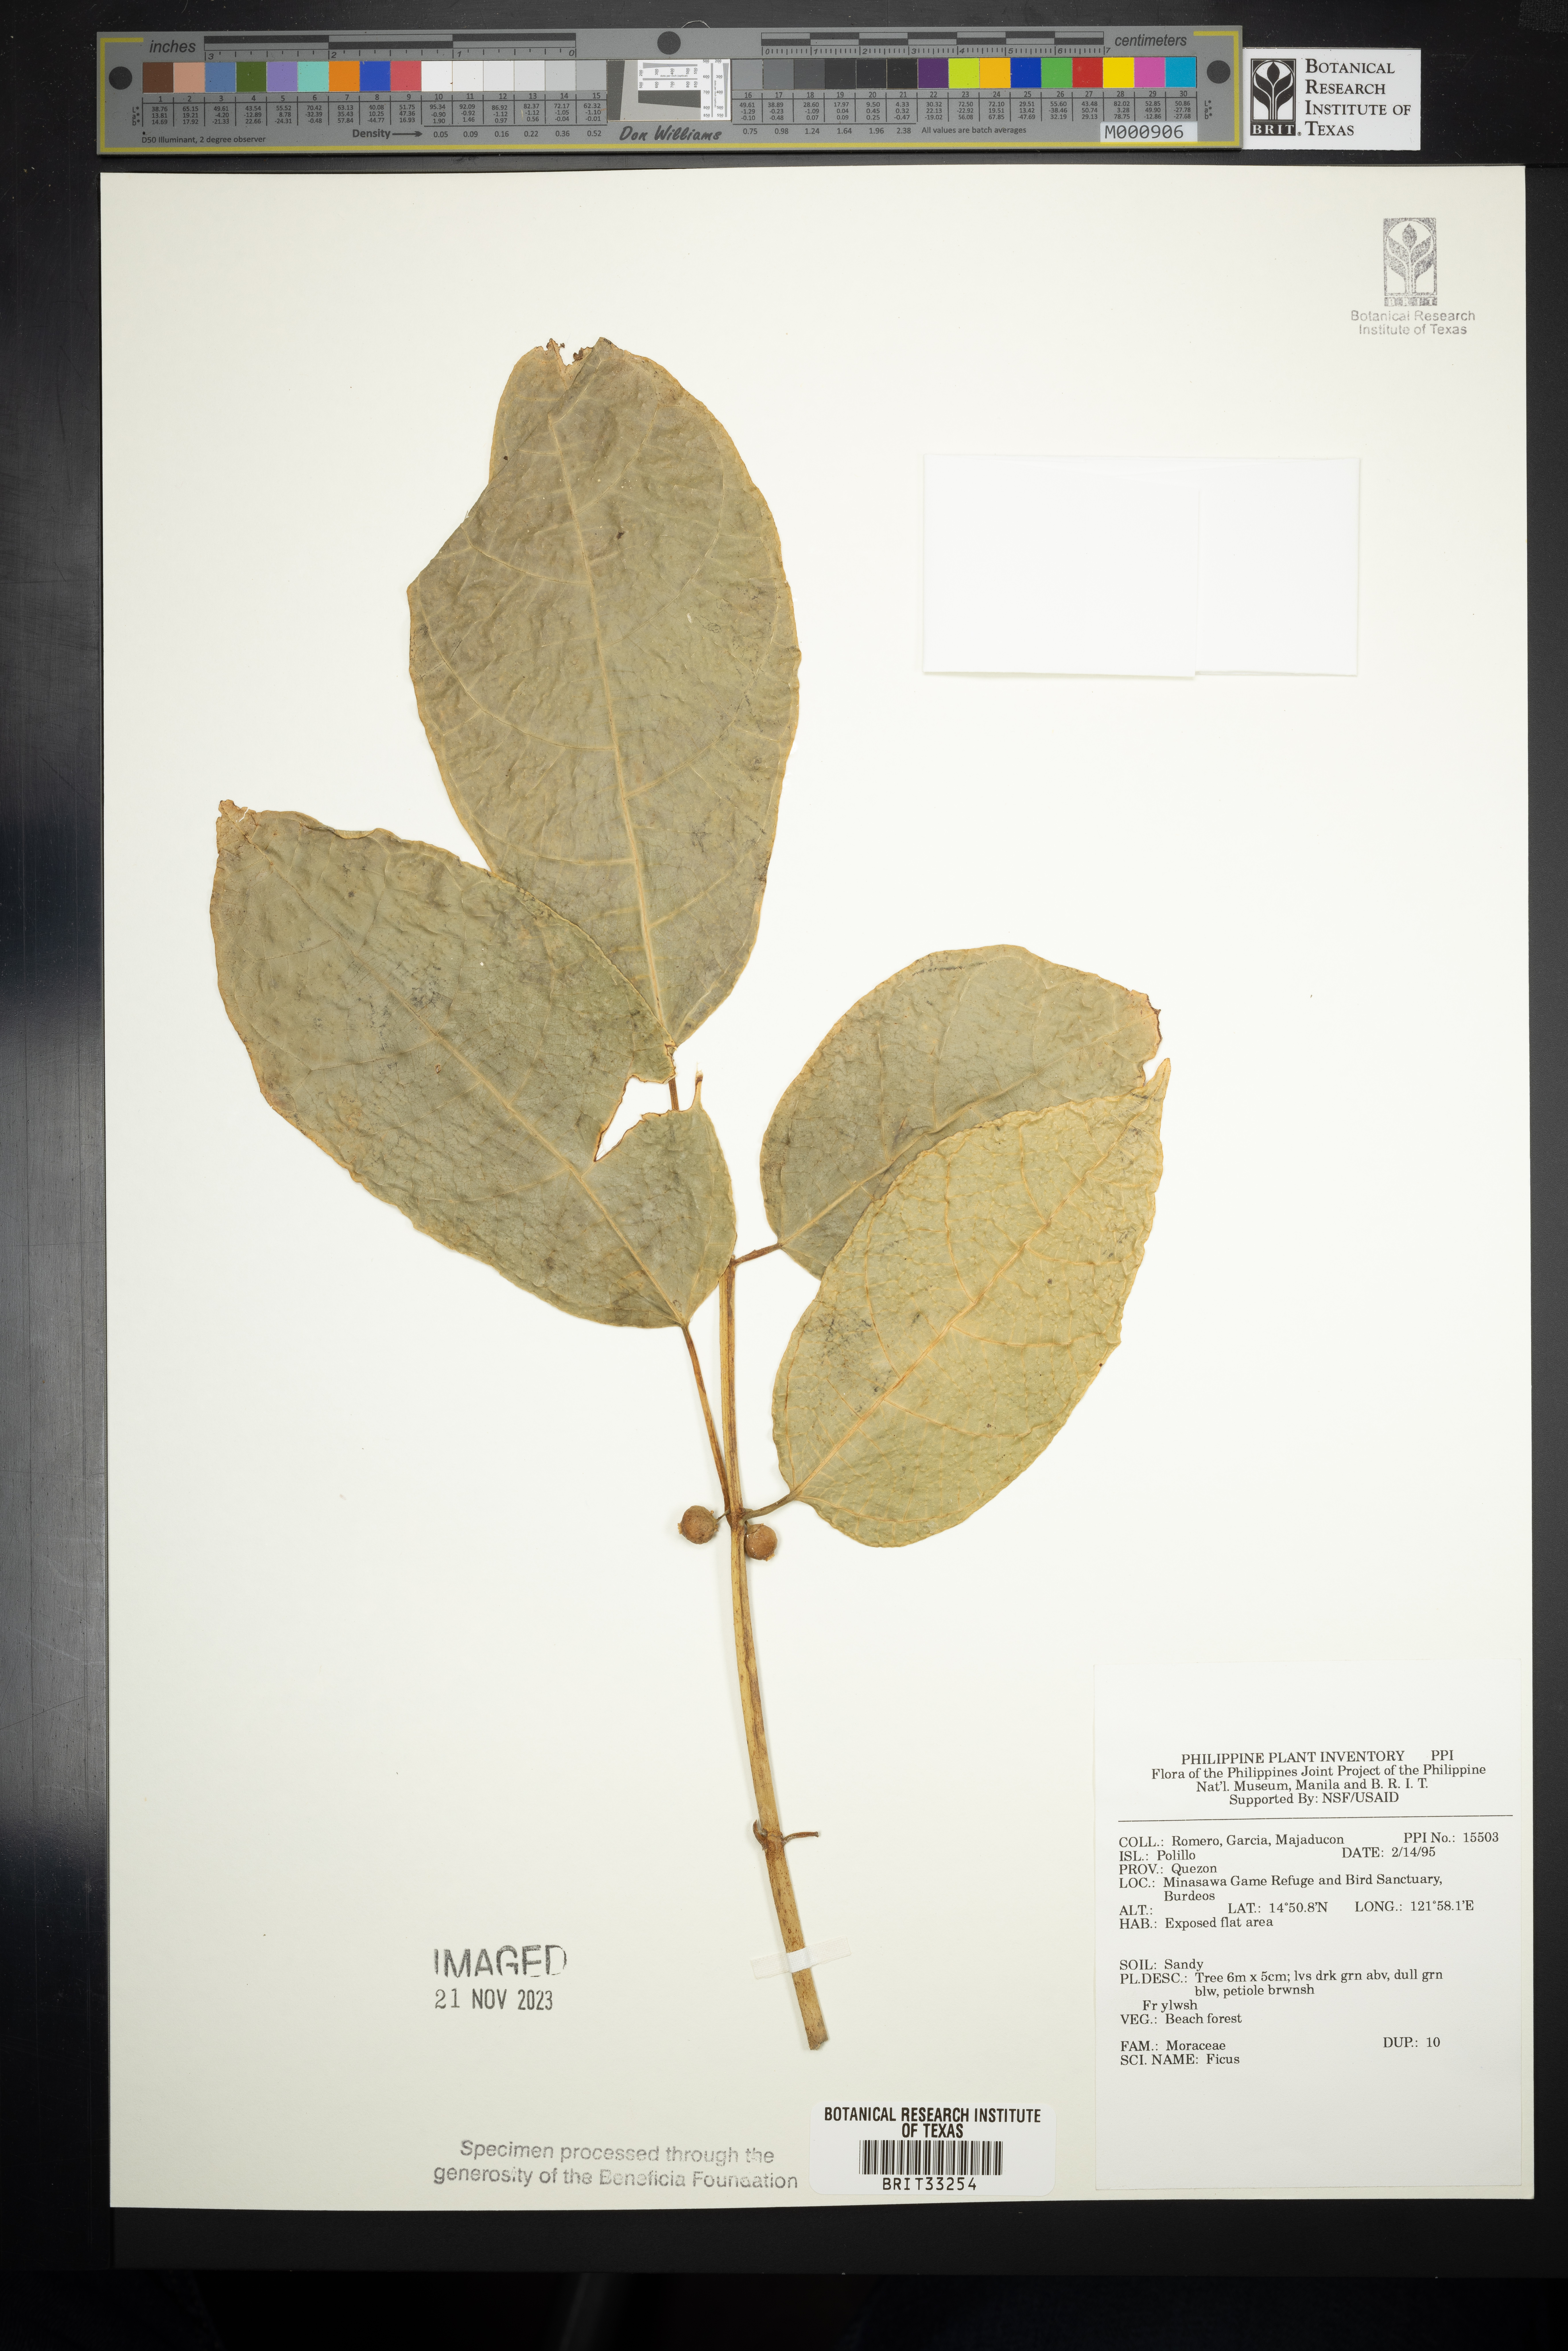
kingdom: Plantae
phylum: Tracheophyta
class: Magnoliopsida
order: Rosales
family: Moraceae
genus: Ficus
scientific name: Ficus
